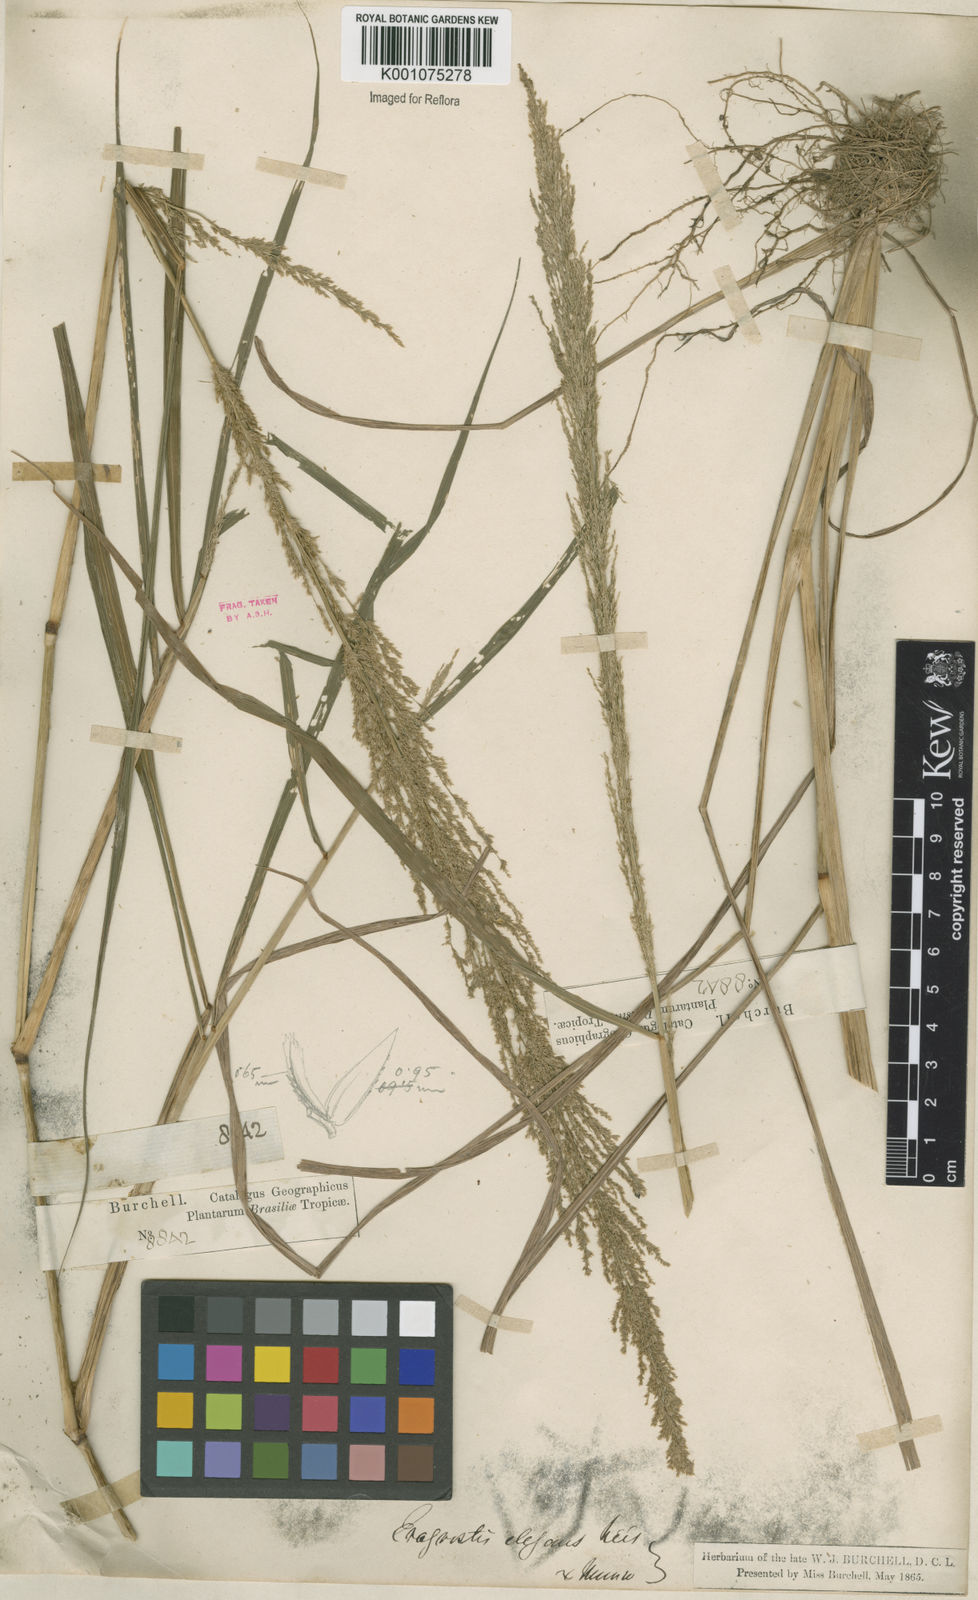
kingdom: Plantae
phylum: Tracheophyta
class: Liliopsida
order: Poales
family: Poaceae
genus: Eragrostis
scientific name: Eragrostis japonica
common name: Pond lovegrass
